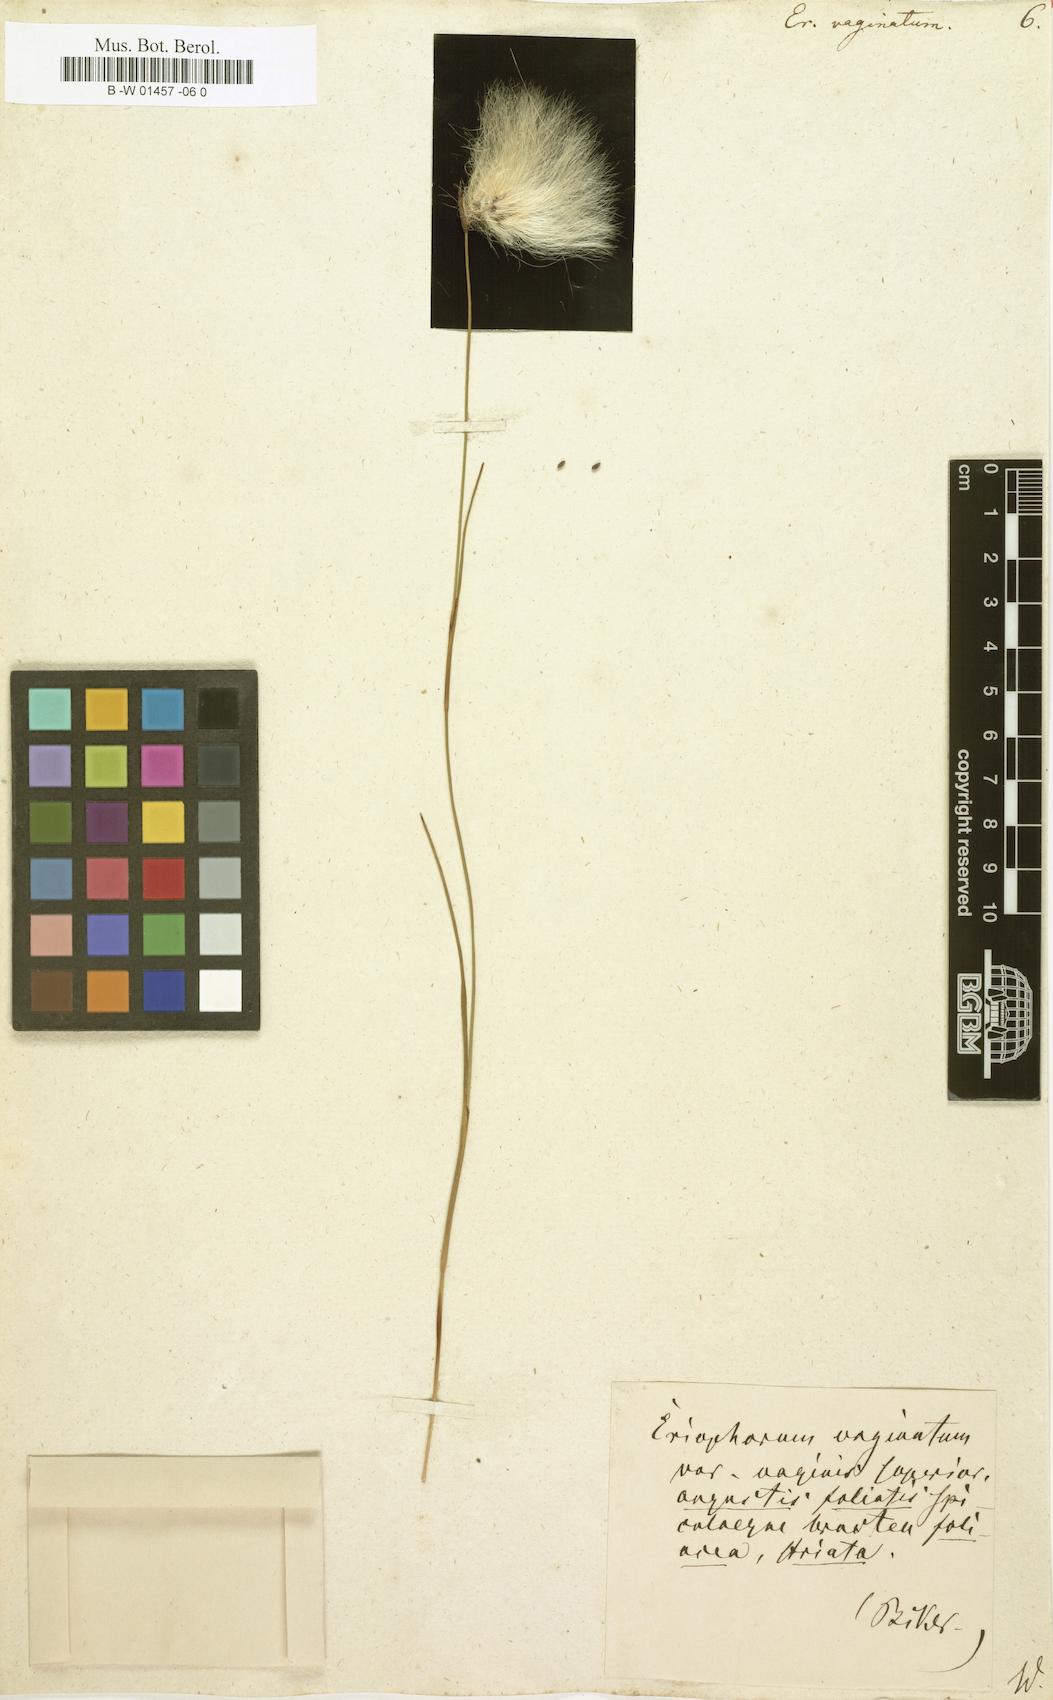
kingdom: Plantae
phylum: Tracheophyta
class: Liliopsida
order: Poales
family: Cyperaceae
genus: Eriophorum
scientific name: Eriophorum vaginatum
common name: Hare's-tail cottongrass
